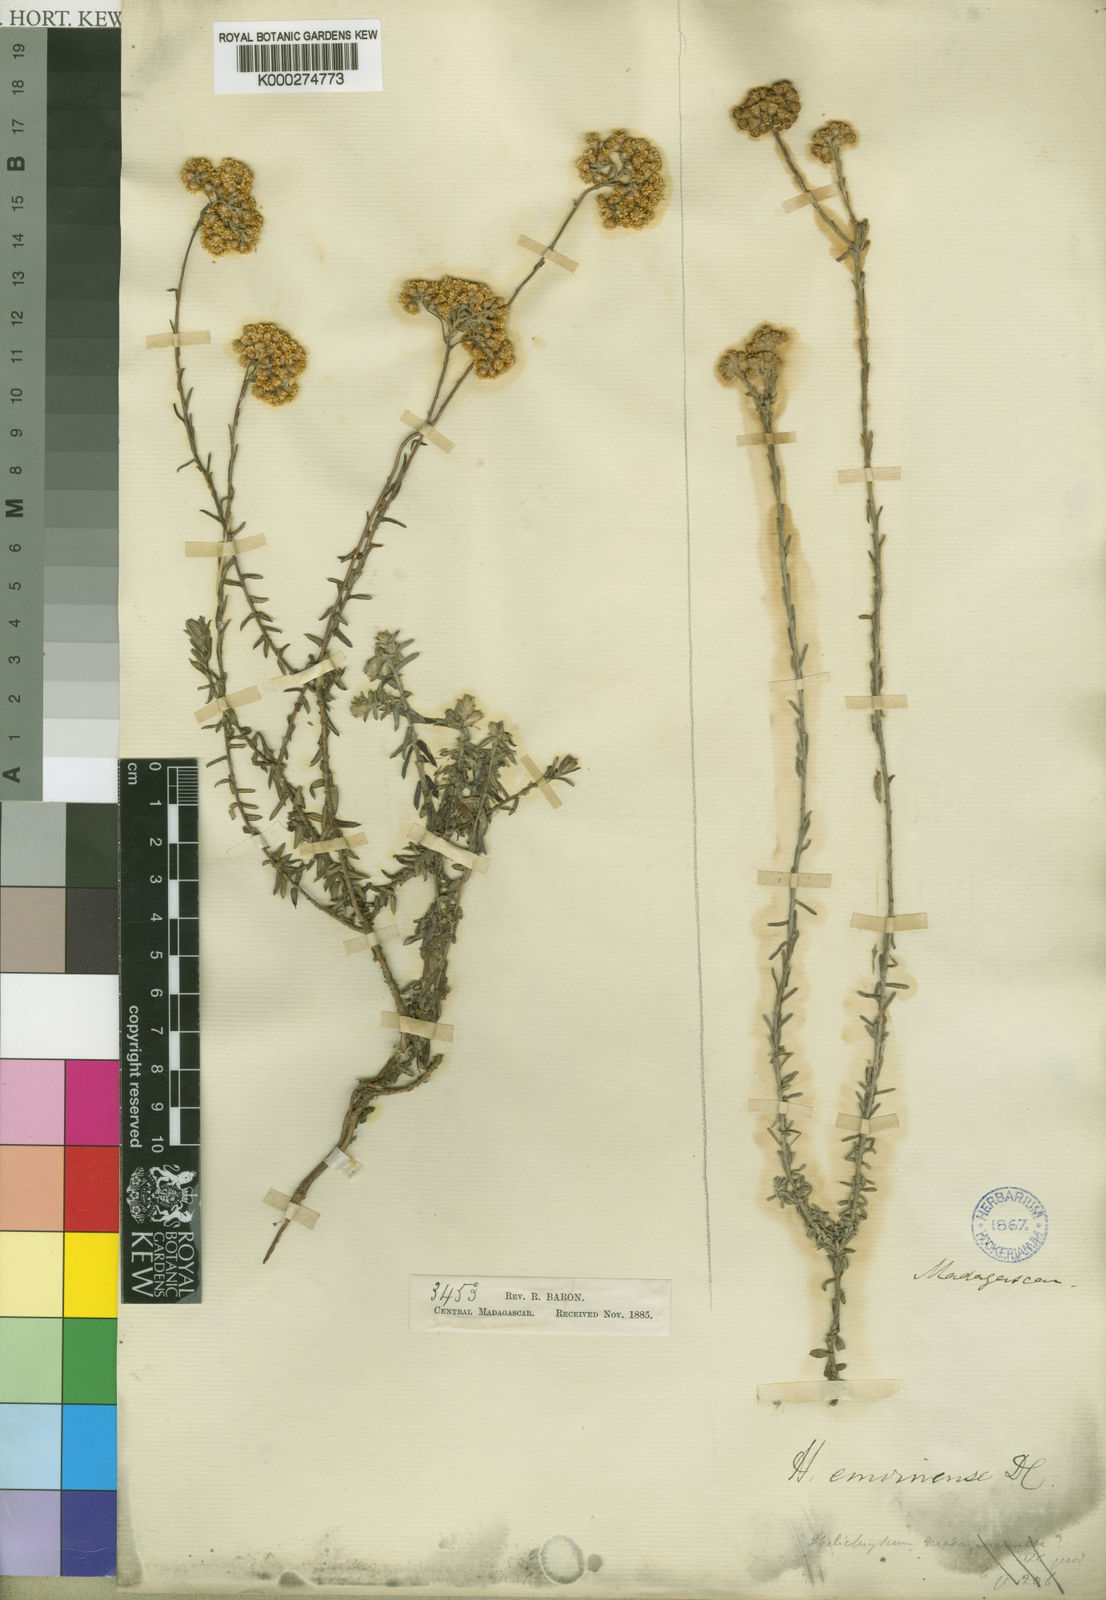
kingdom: Plantae
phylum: Tracheophyta
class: Magnoliopsida
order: Asterales
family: Asteraceae
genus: Helichrysum
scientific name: Helichrysum
